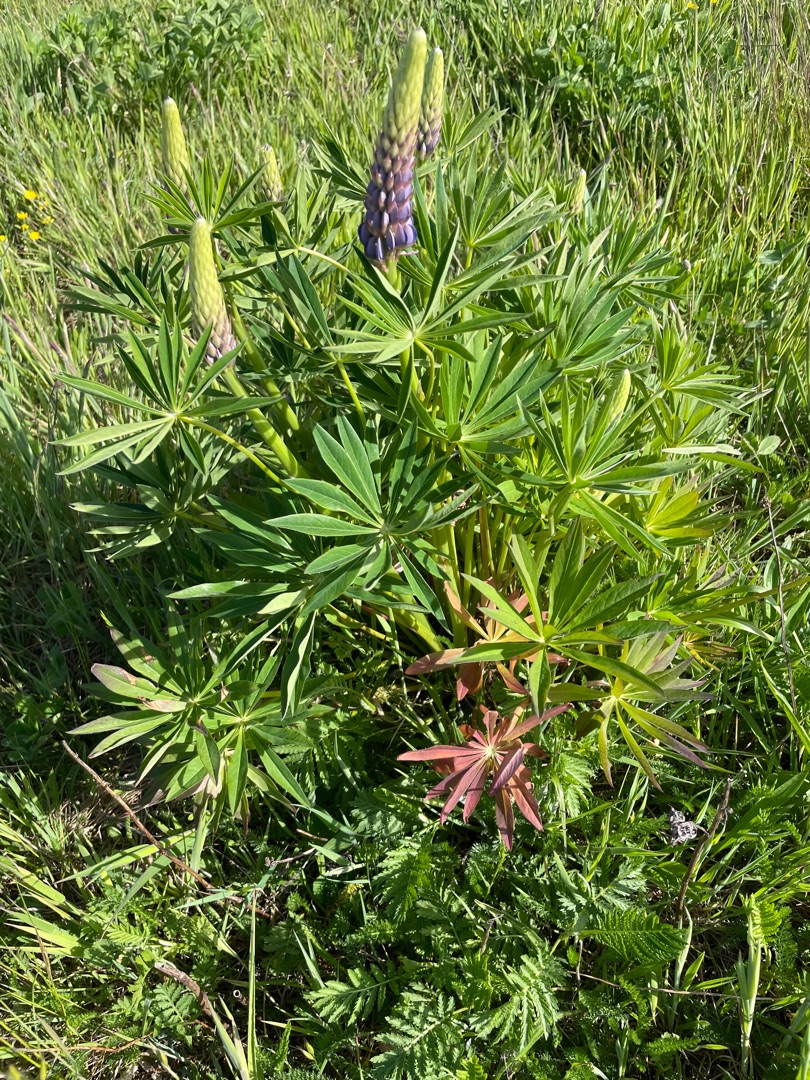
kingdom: Plantae
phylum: Tracheophyta
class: Magnoliopsida
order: Fabales
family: Fabaceae
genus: Lupinus
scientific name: Lupinus polyphyllus
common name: Mangebladet lupin
